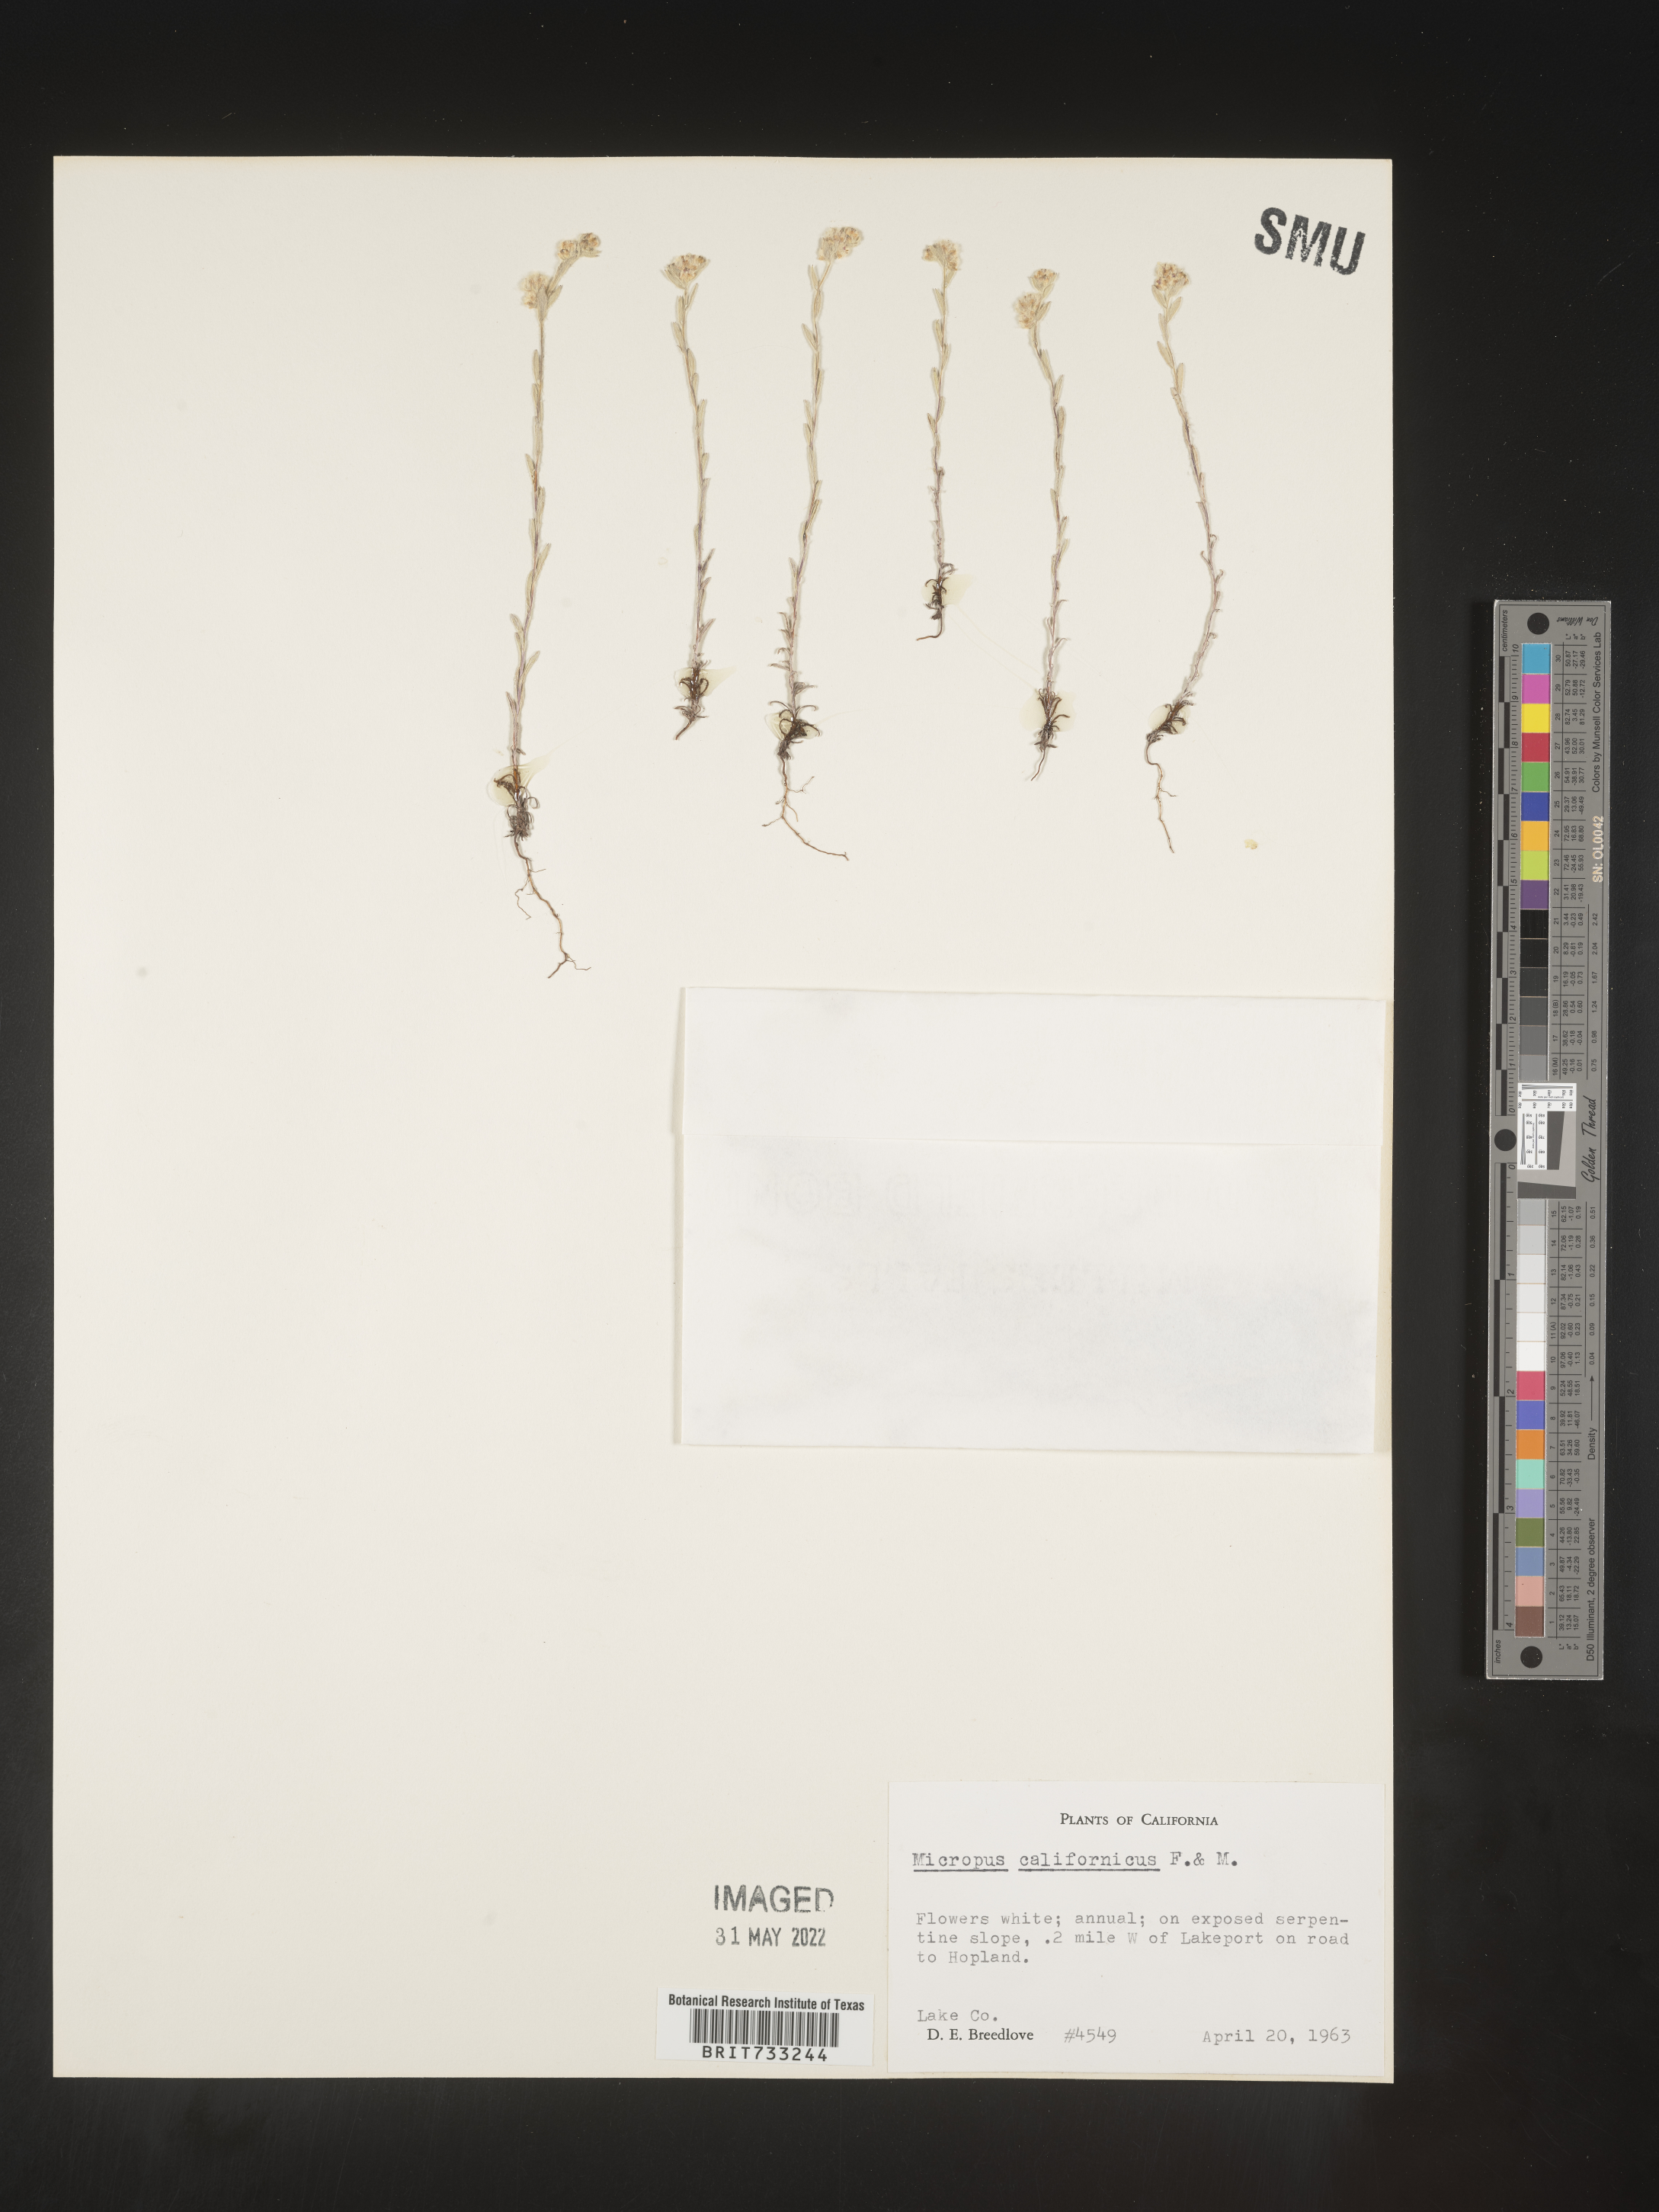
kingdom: Plantae
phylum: Tracheophyta
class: Magnoliopsida
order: Asterales
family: Asteraceae
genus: Micropus
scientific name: Micropus
